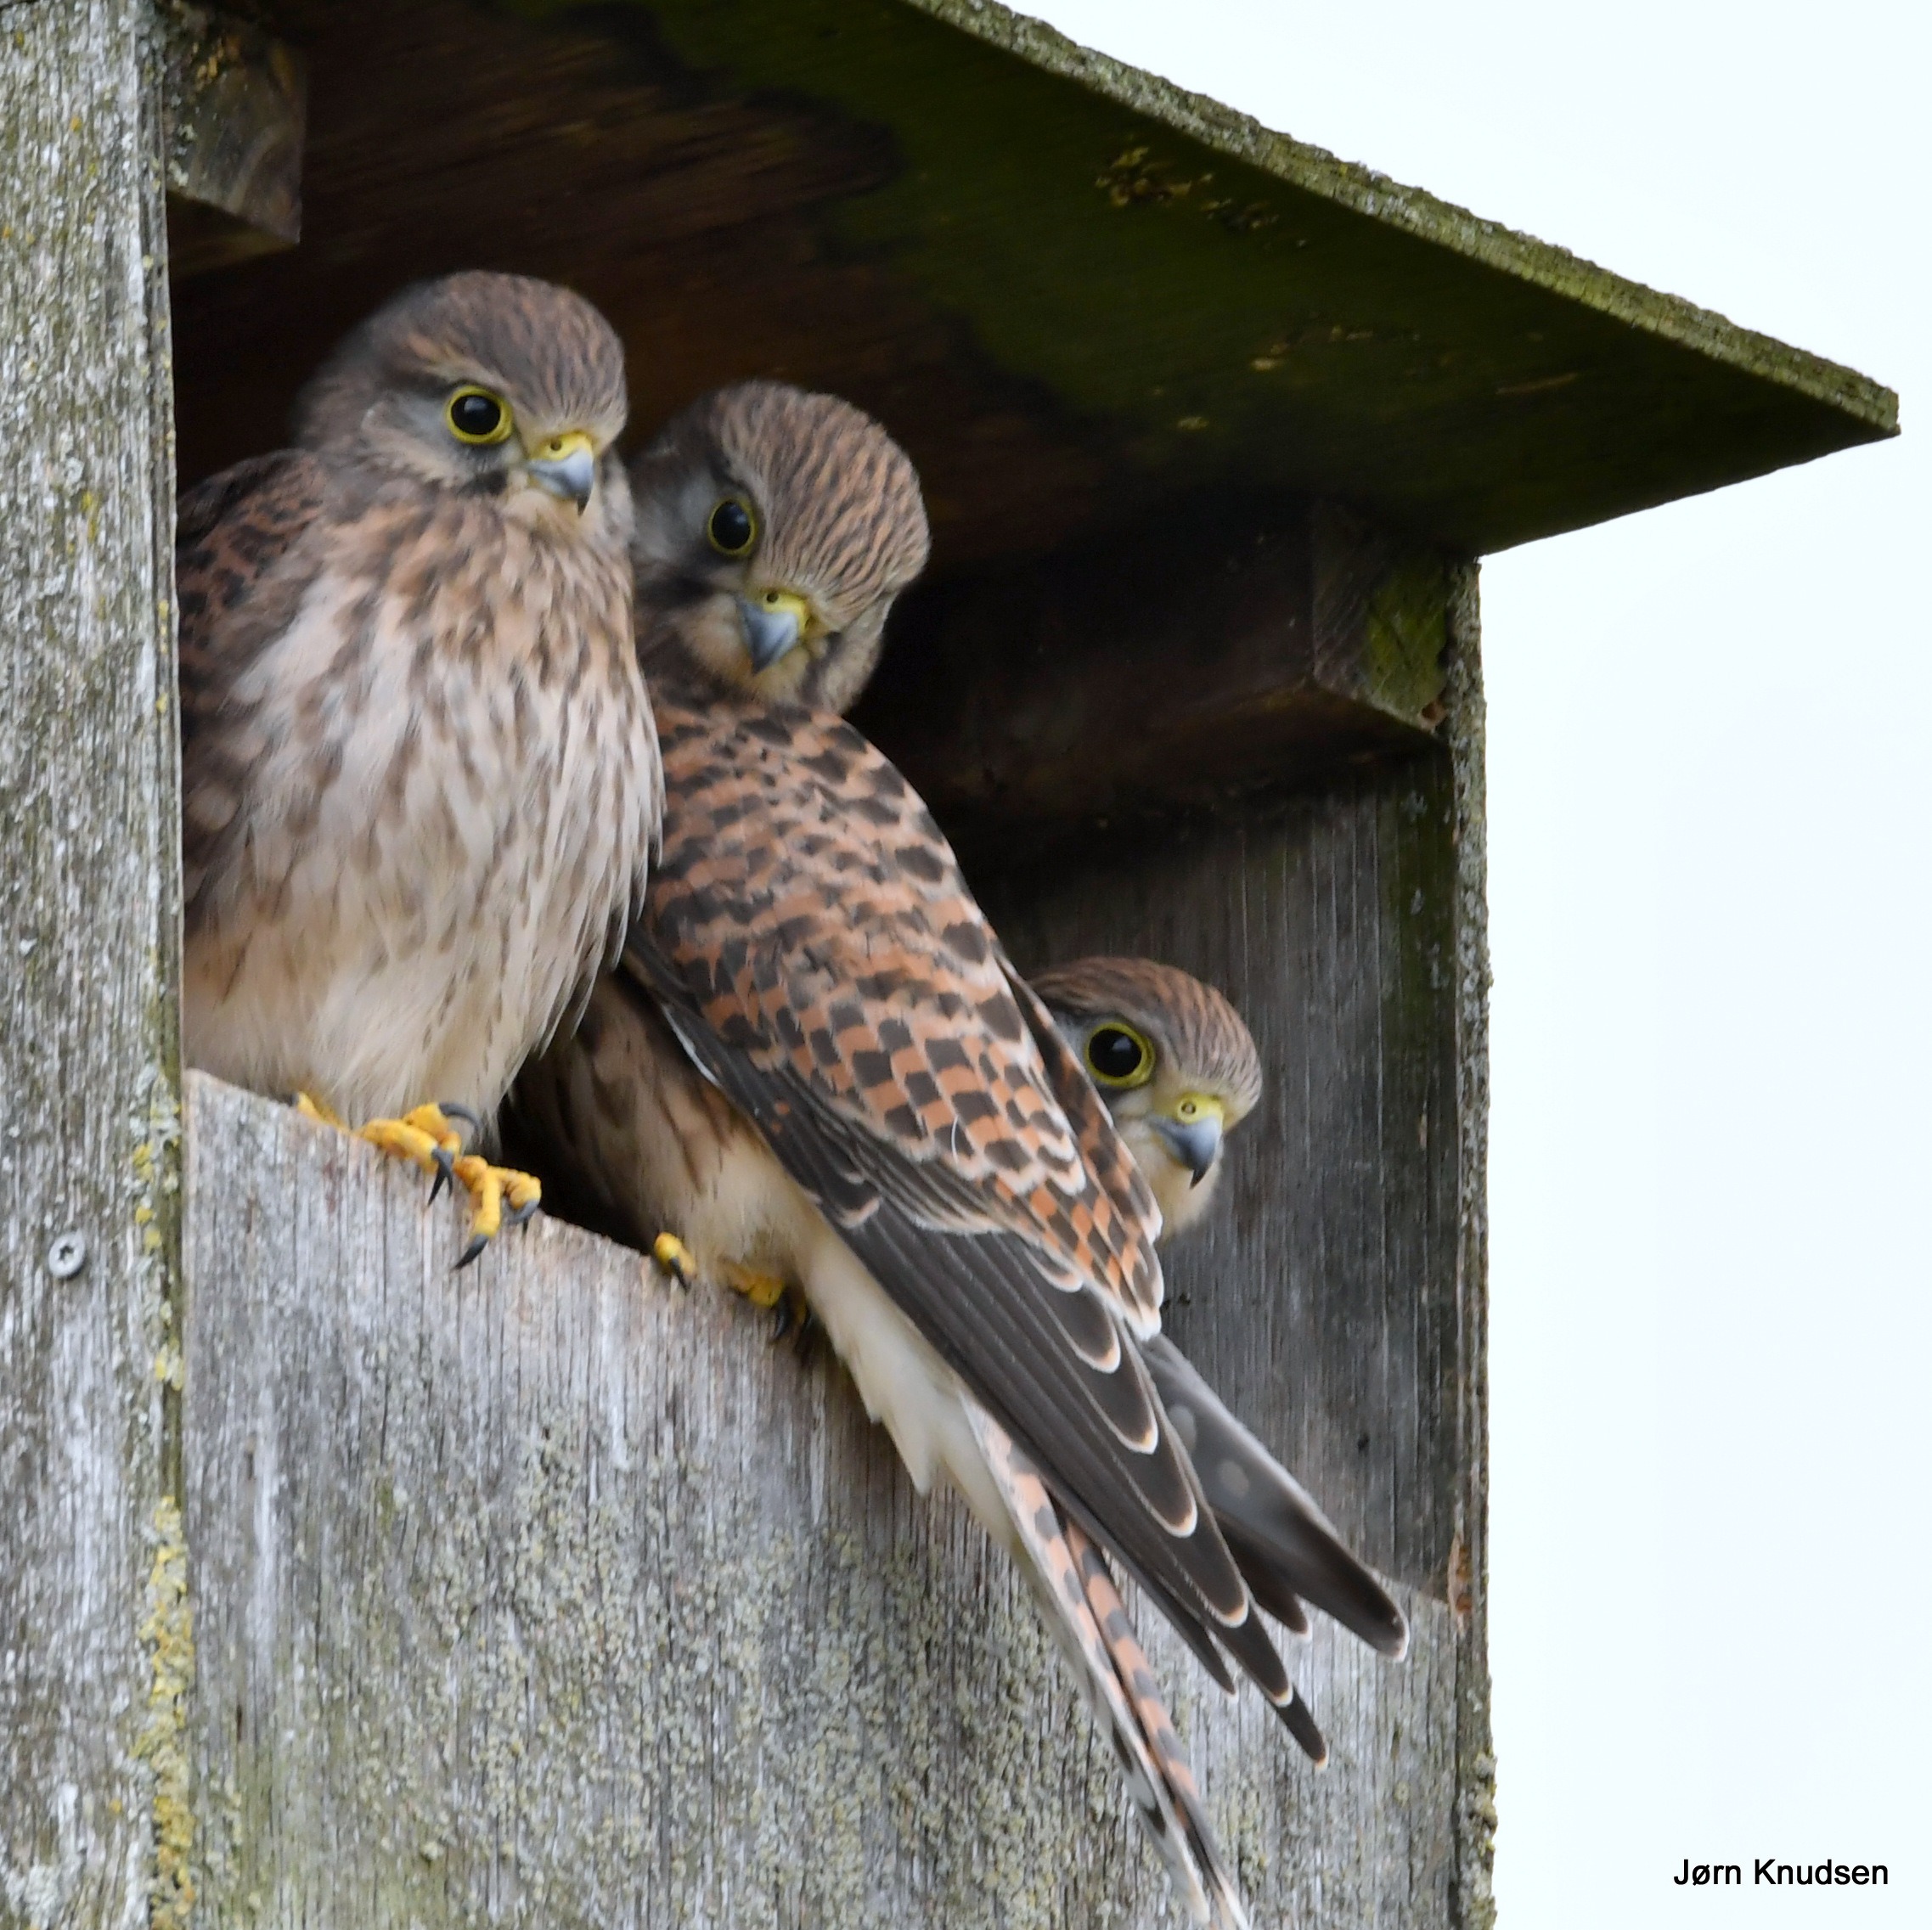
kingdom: Animalia
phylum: Chordata
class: Aves
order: Falconiformes
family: Falconidae
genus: Falco
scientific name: Falco tinnunculus
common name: Tårnfalk
